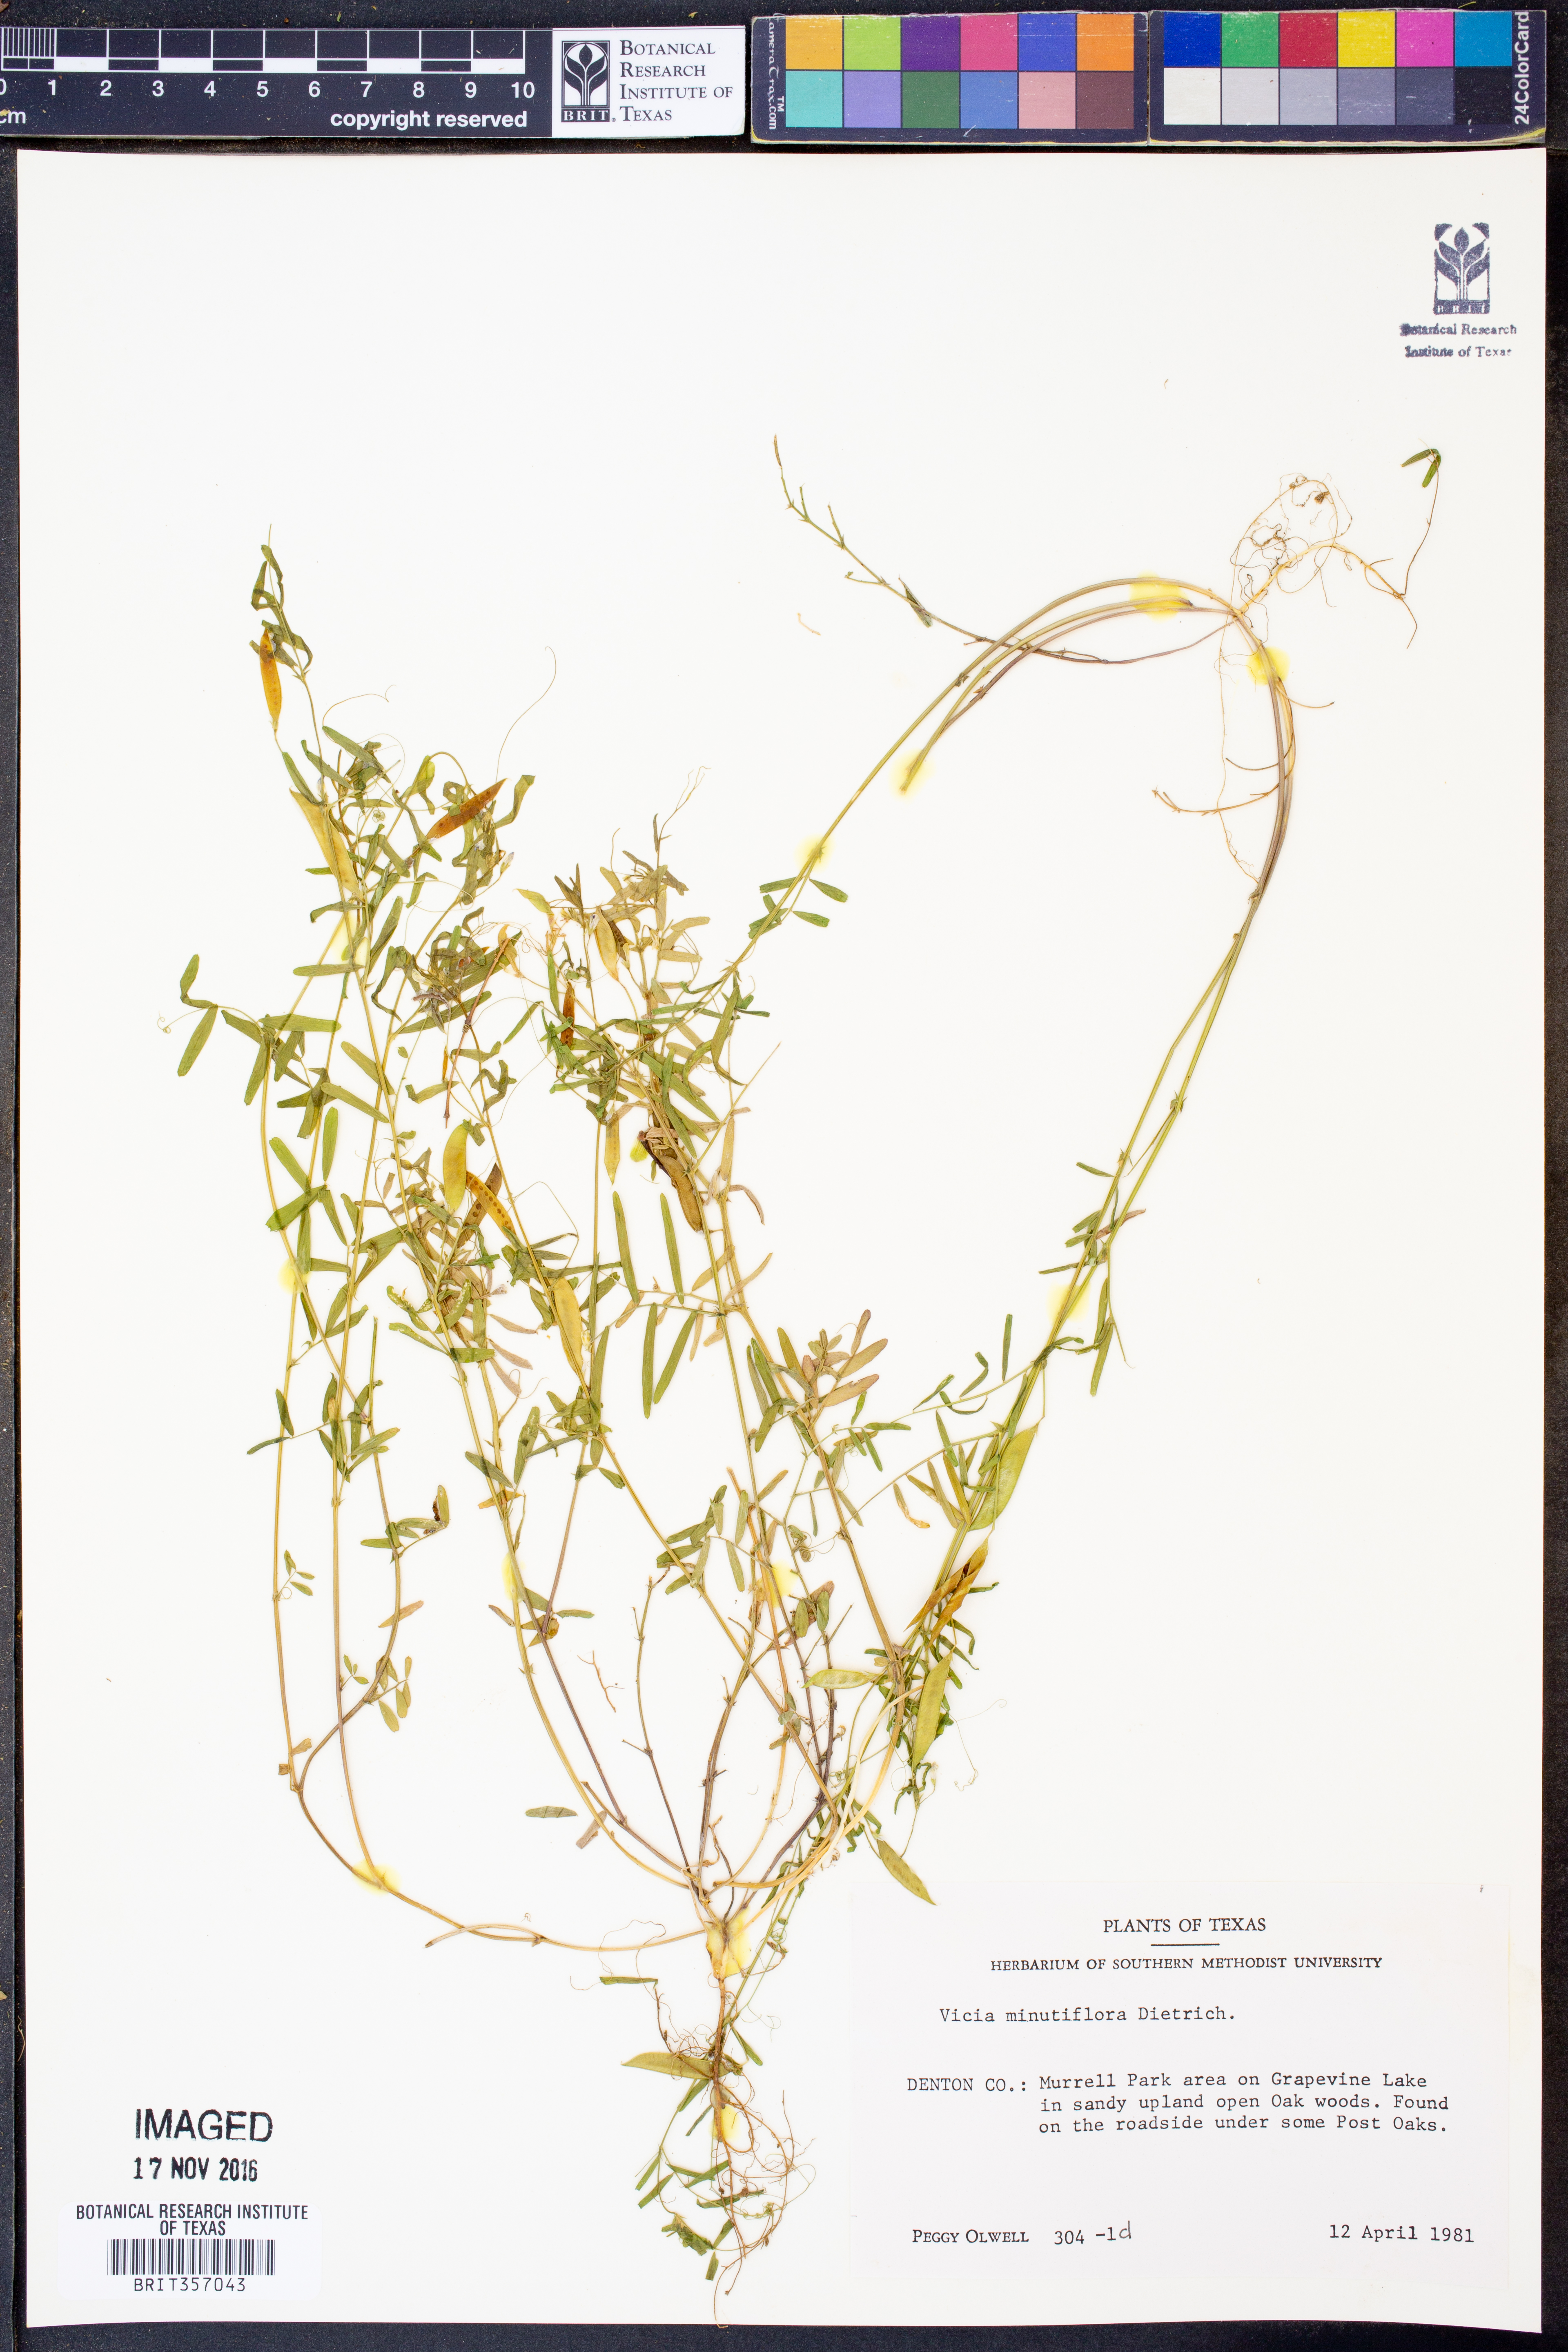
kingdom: Plantae
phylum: Tracheophyta
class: Magnoliopsida
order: Fabales
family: Fabaceae
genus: Vicia
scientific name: Vicia minutiflora
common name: Pygmy-flower vetch
